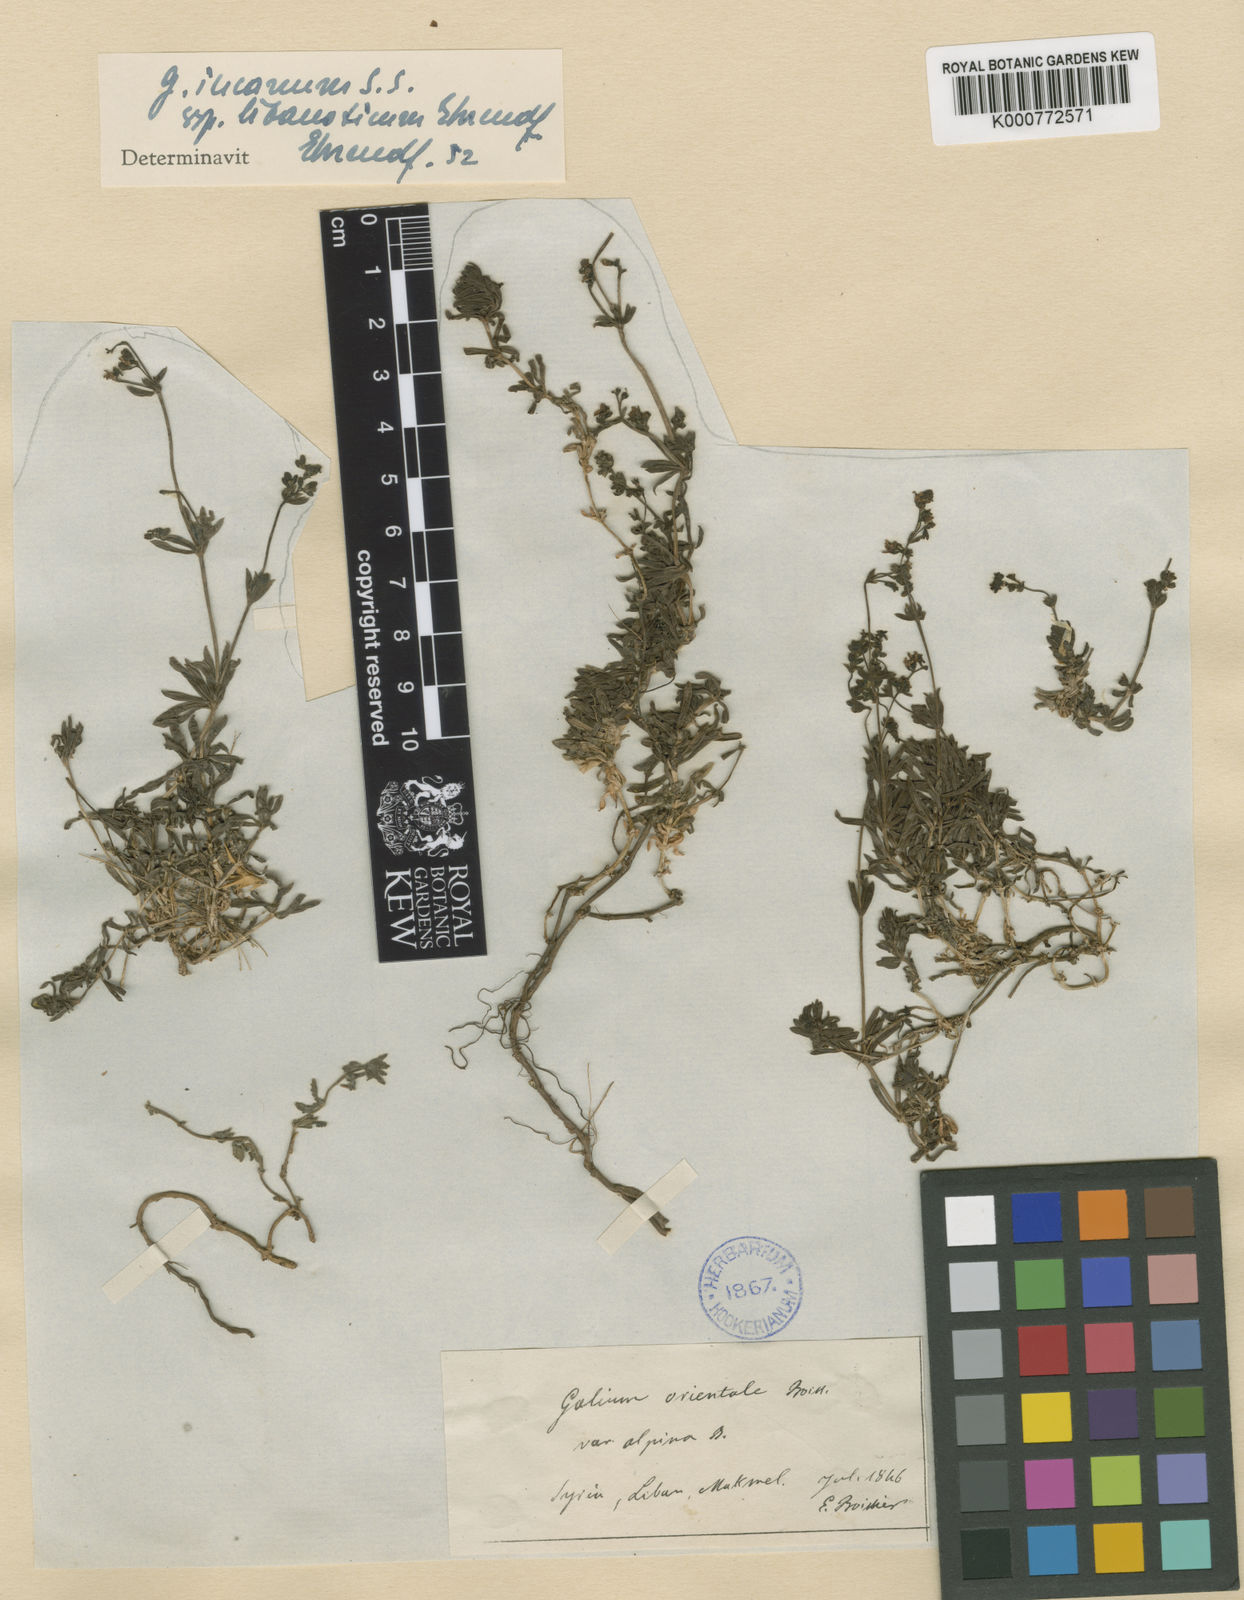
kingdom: Plantae
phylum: Tracheophyta
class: Magnoliopsida
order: Gentianales
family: Rubiaceae
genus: Galium
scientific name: Galium incanum
